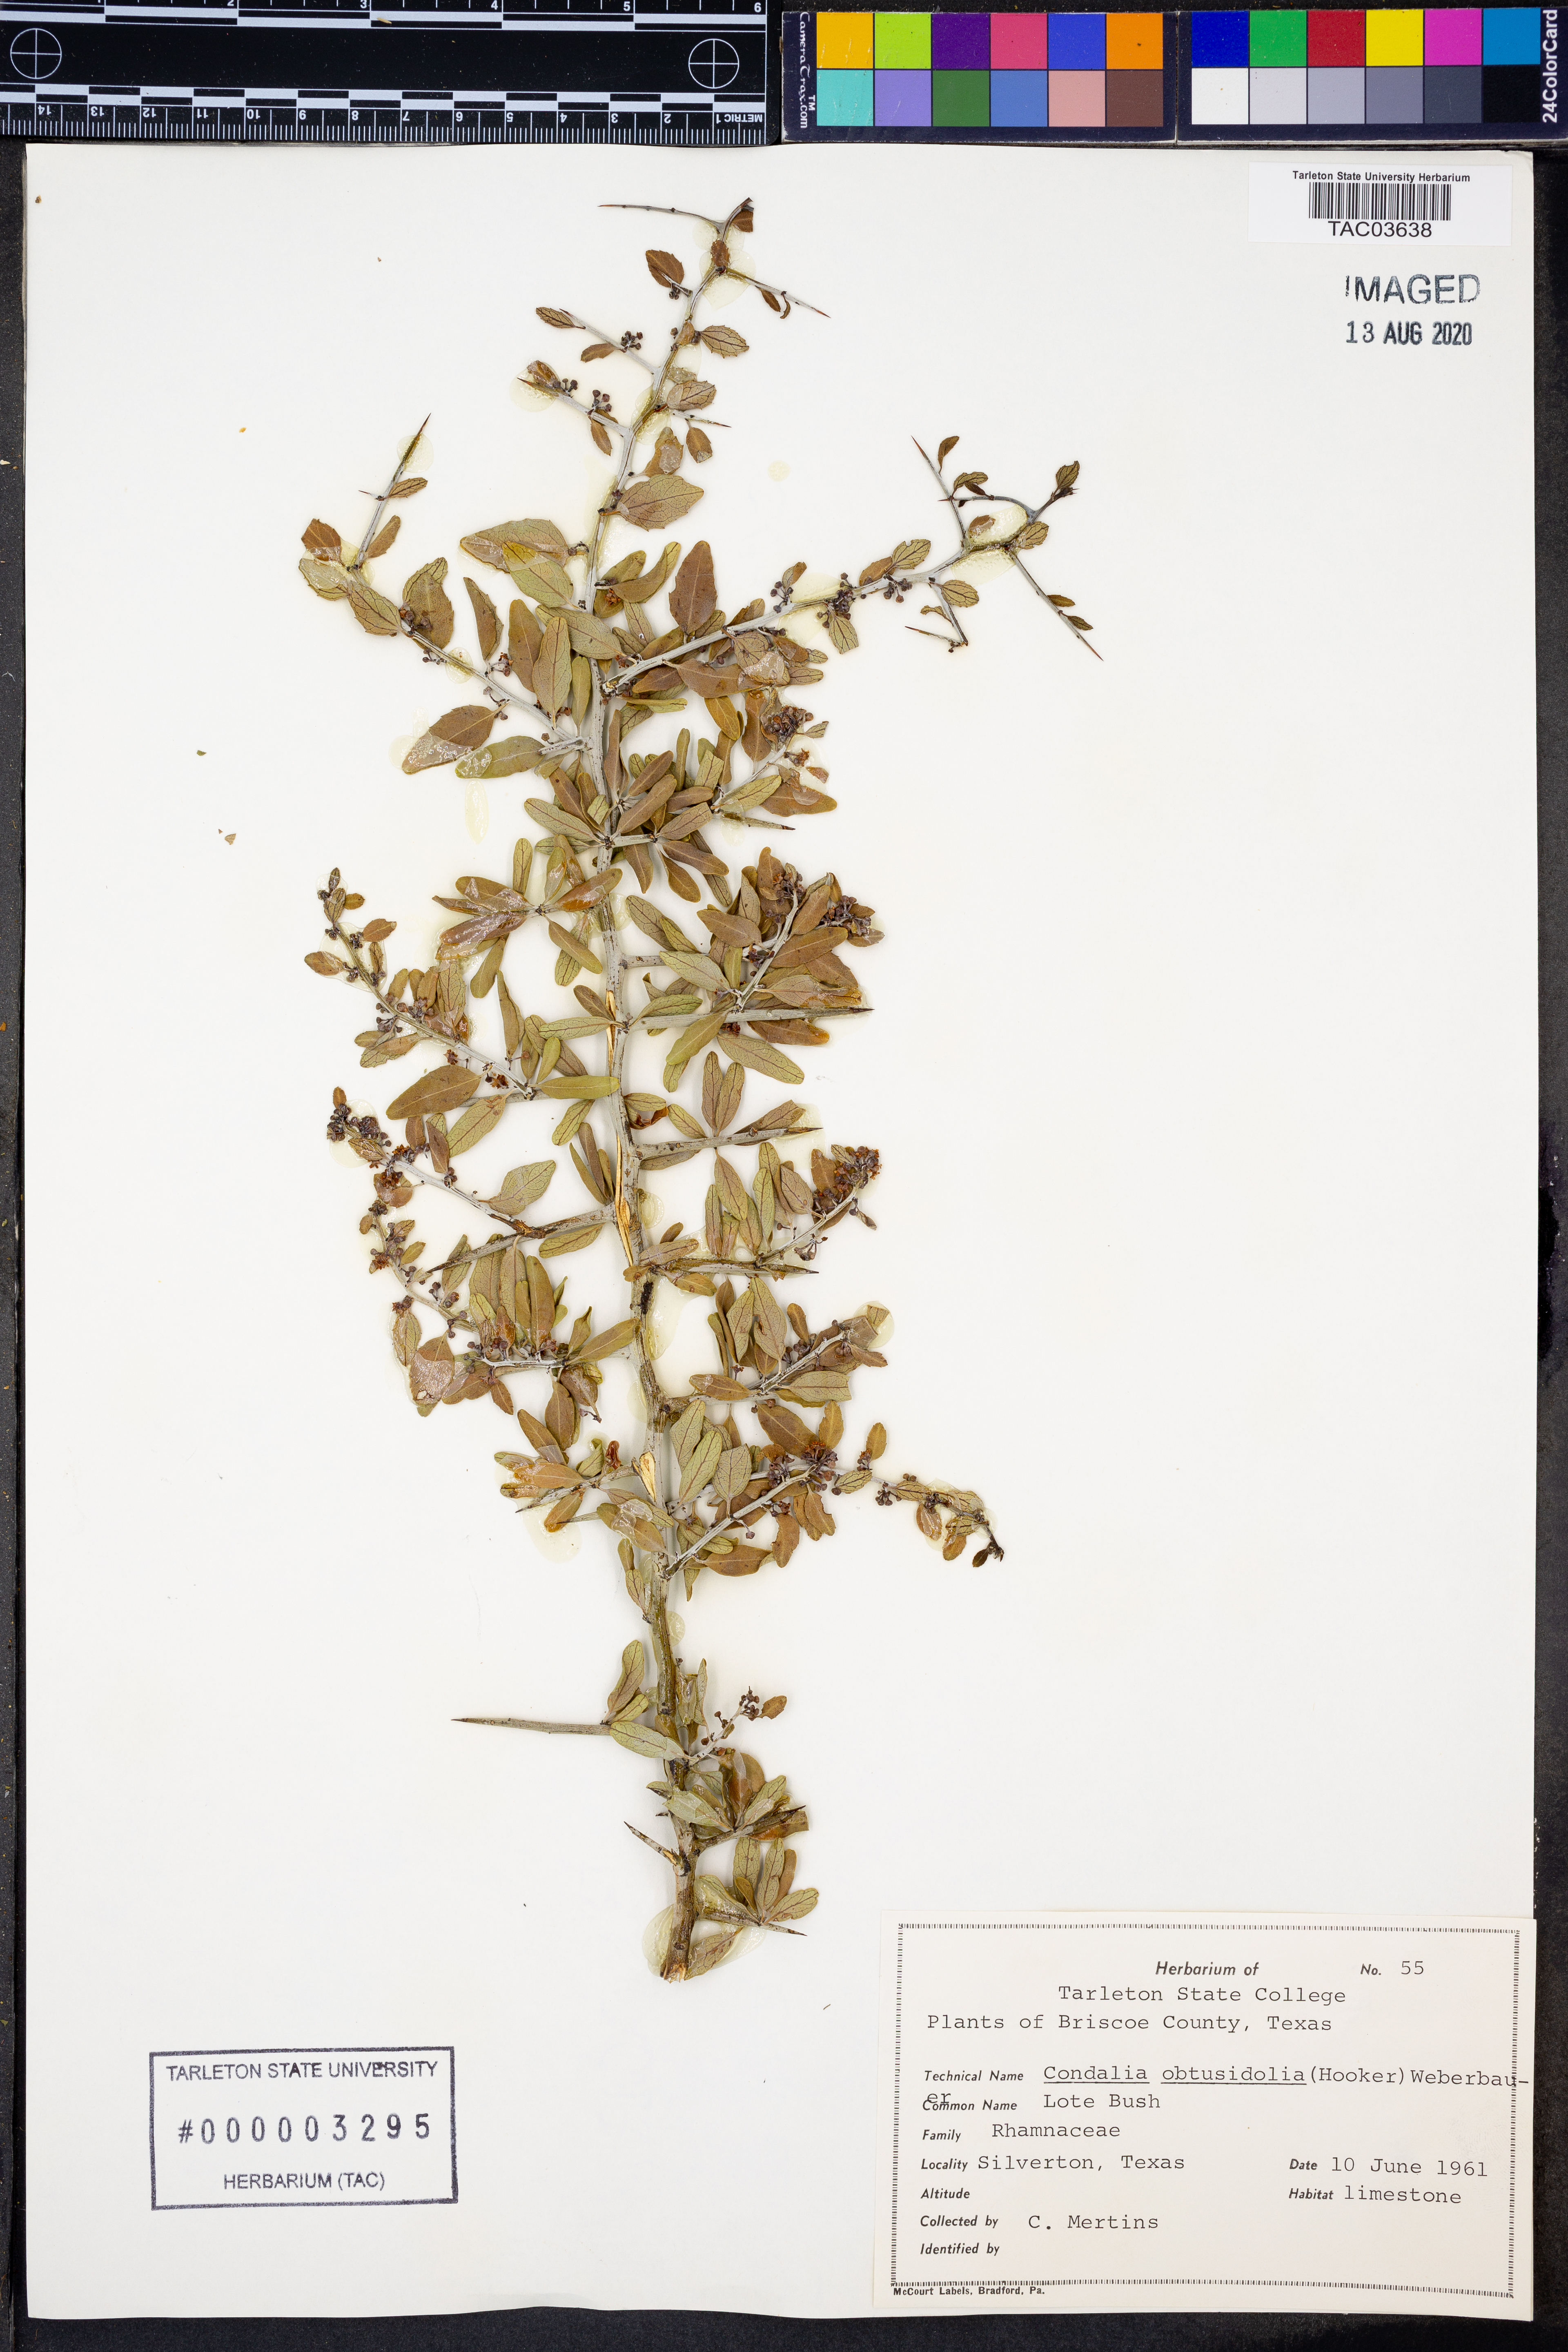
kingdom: Plantae
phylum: Tracheophyta
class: Magnoliopsida
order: Rosales
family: Rhamnaceae
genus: Sarcomphalus
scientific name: Sarcomphalus obtusifolius
